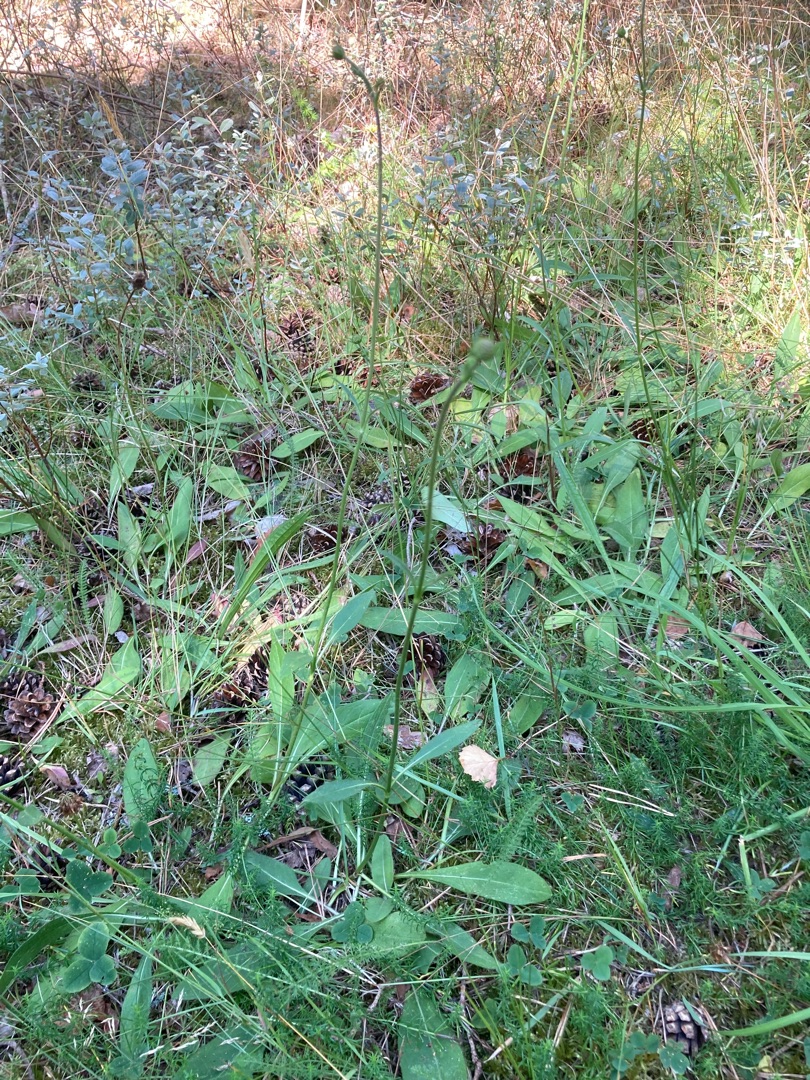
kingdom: Plantae
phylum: Tracheophyta
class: Magnoliopsida
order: Dipsacales
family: Caprifoliaceae
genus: Succisa
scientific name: Succisa pratensis
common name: Djævelsbid
